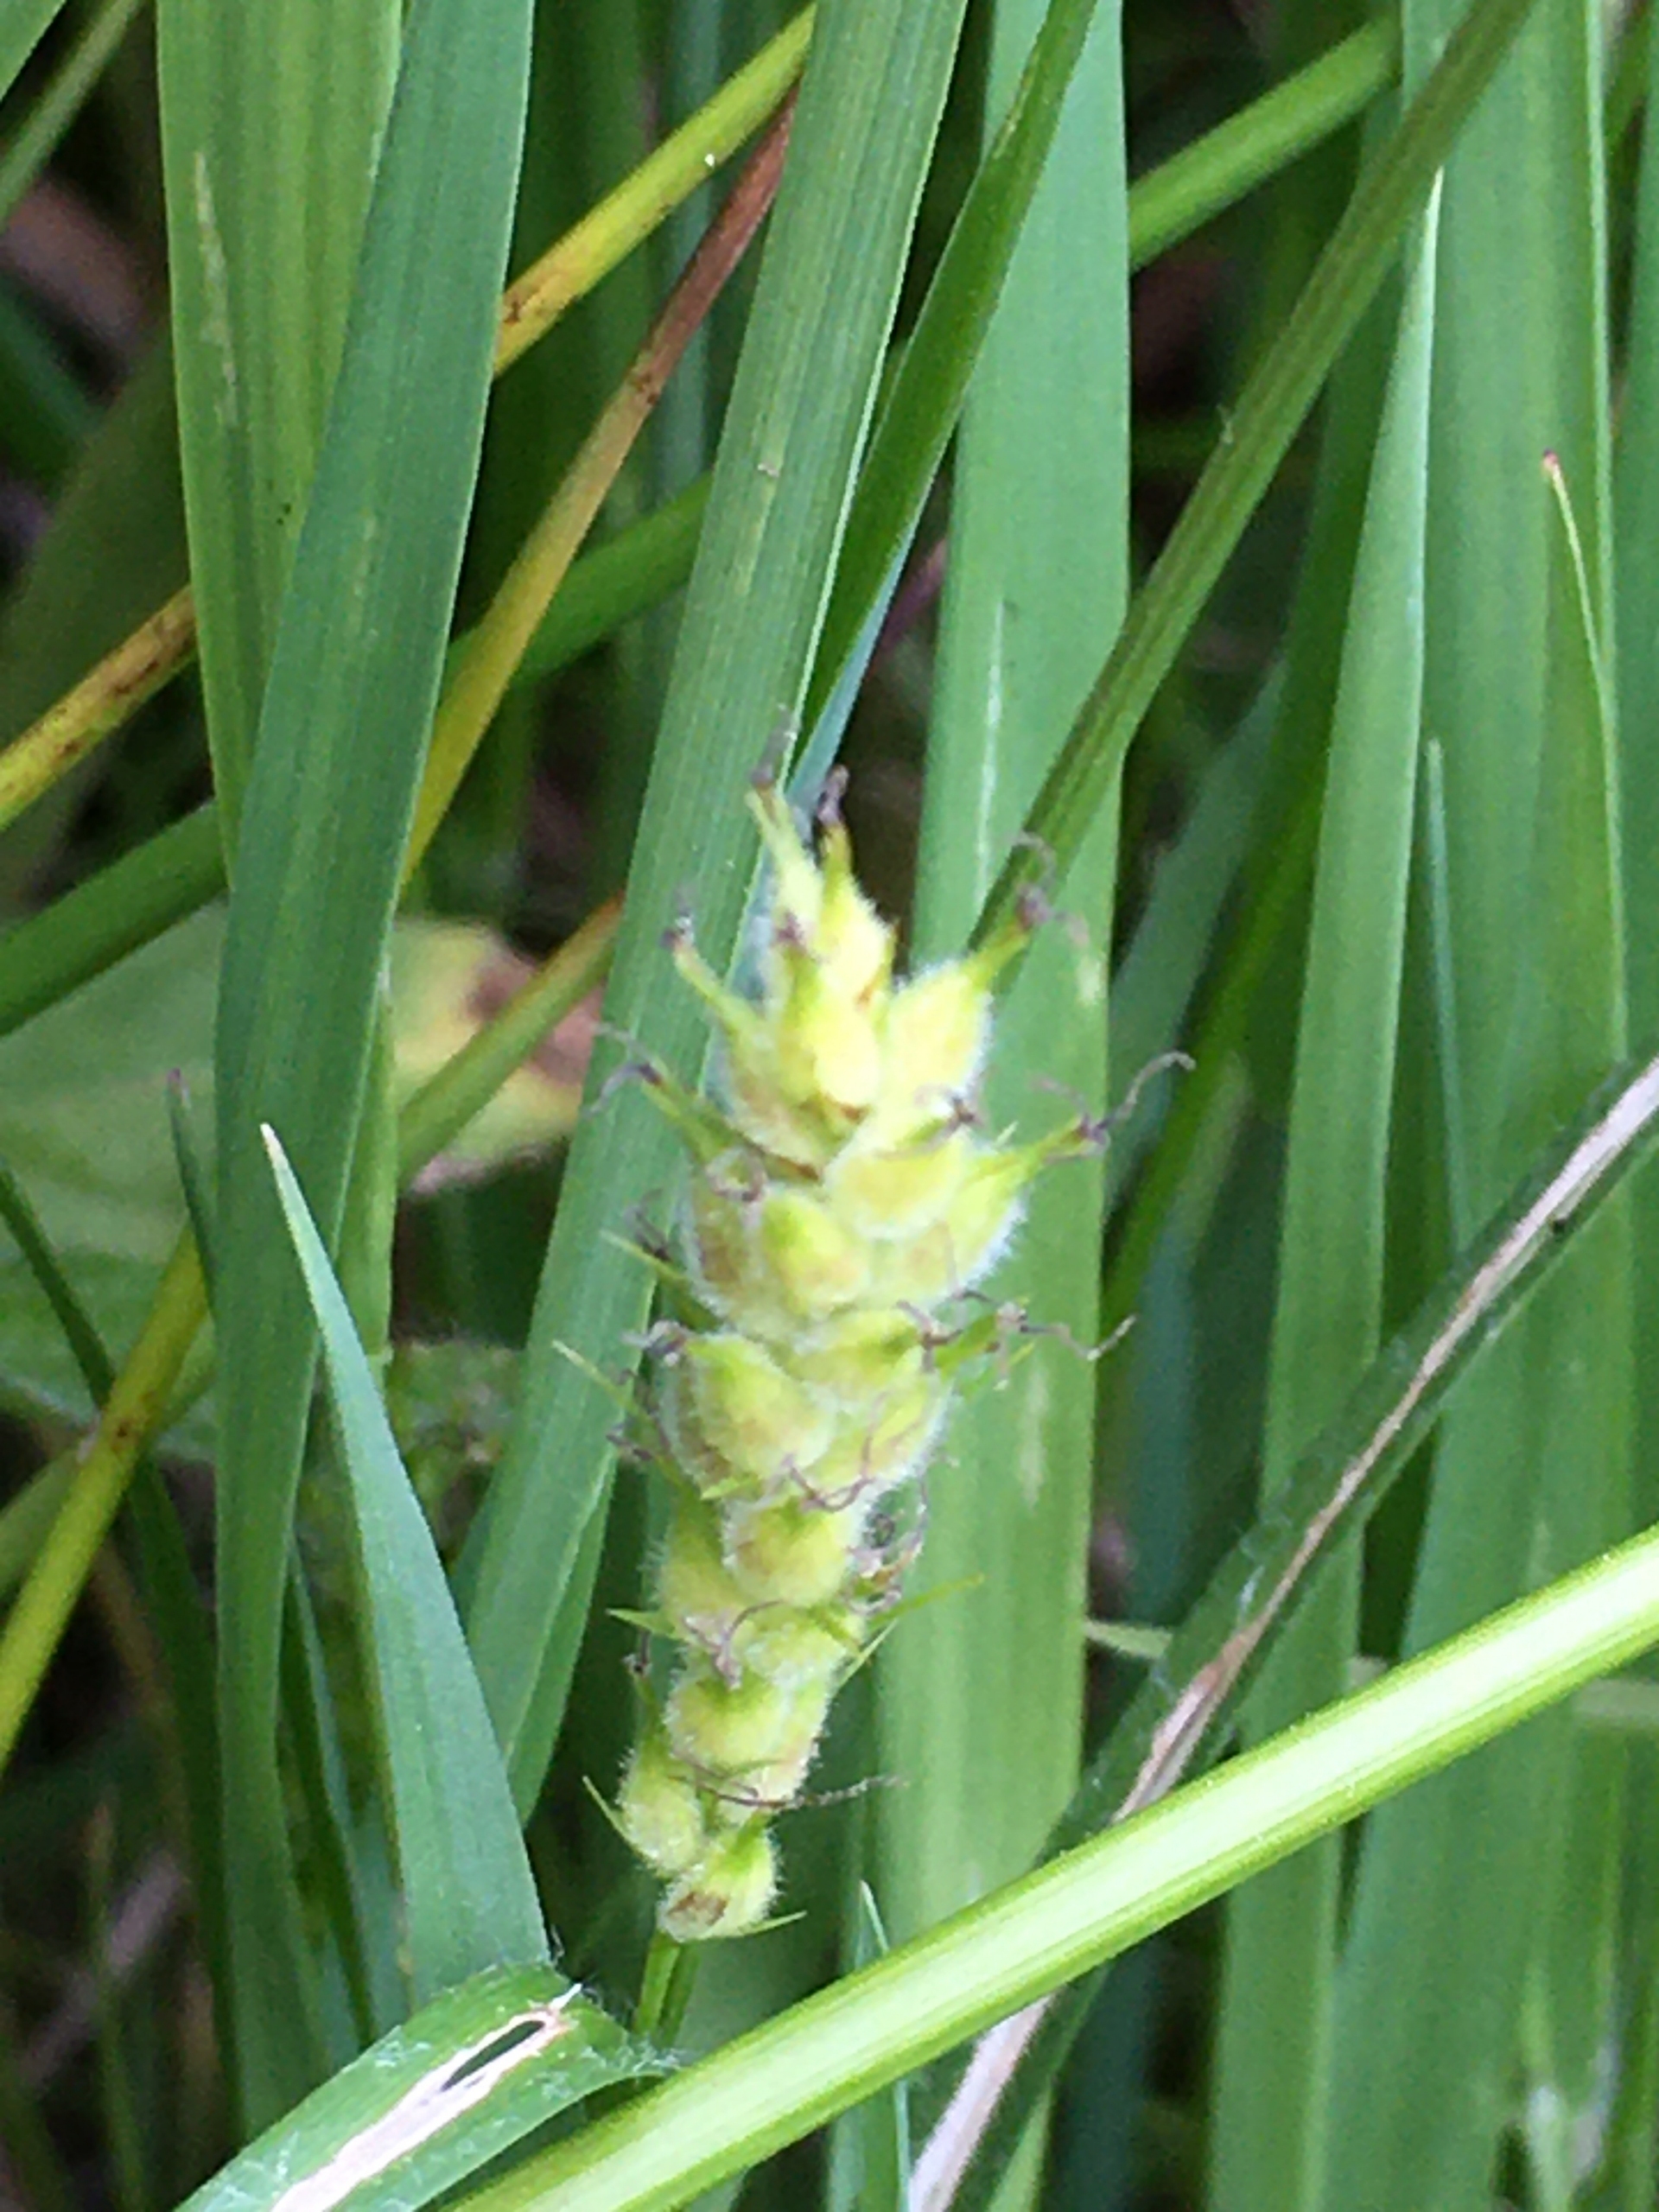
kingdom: Plantae
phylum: Tracheophyta
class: Liliopsida
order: Poales
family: Cyperaceae
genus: Carex
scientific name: Carex hirta
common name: Håret star
